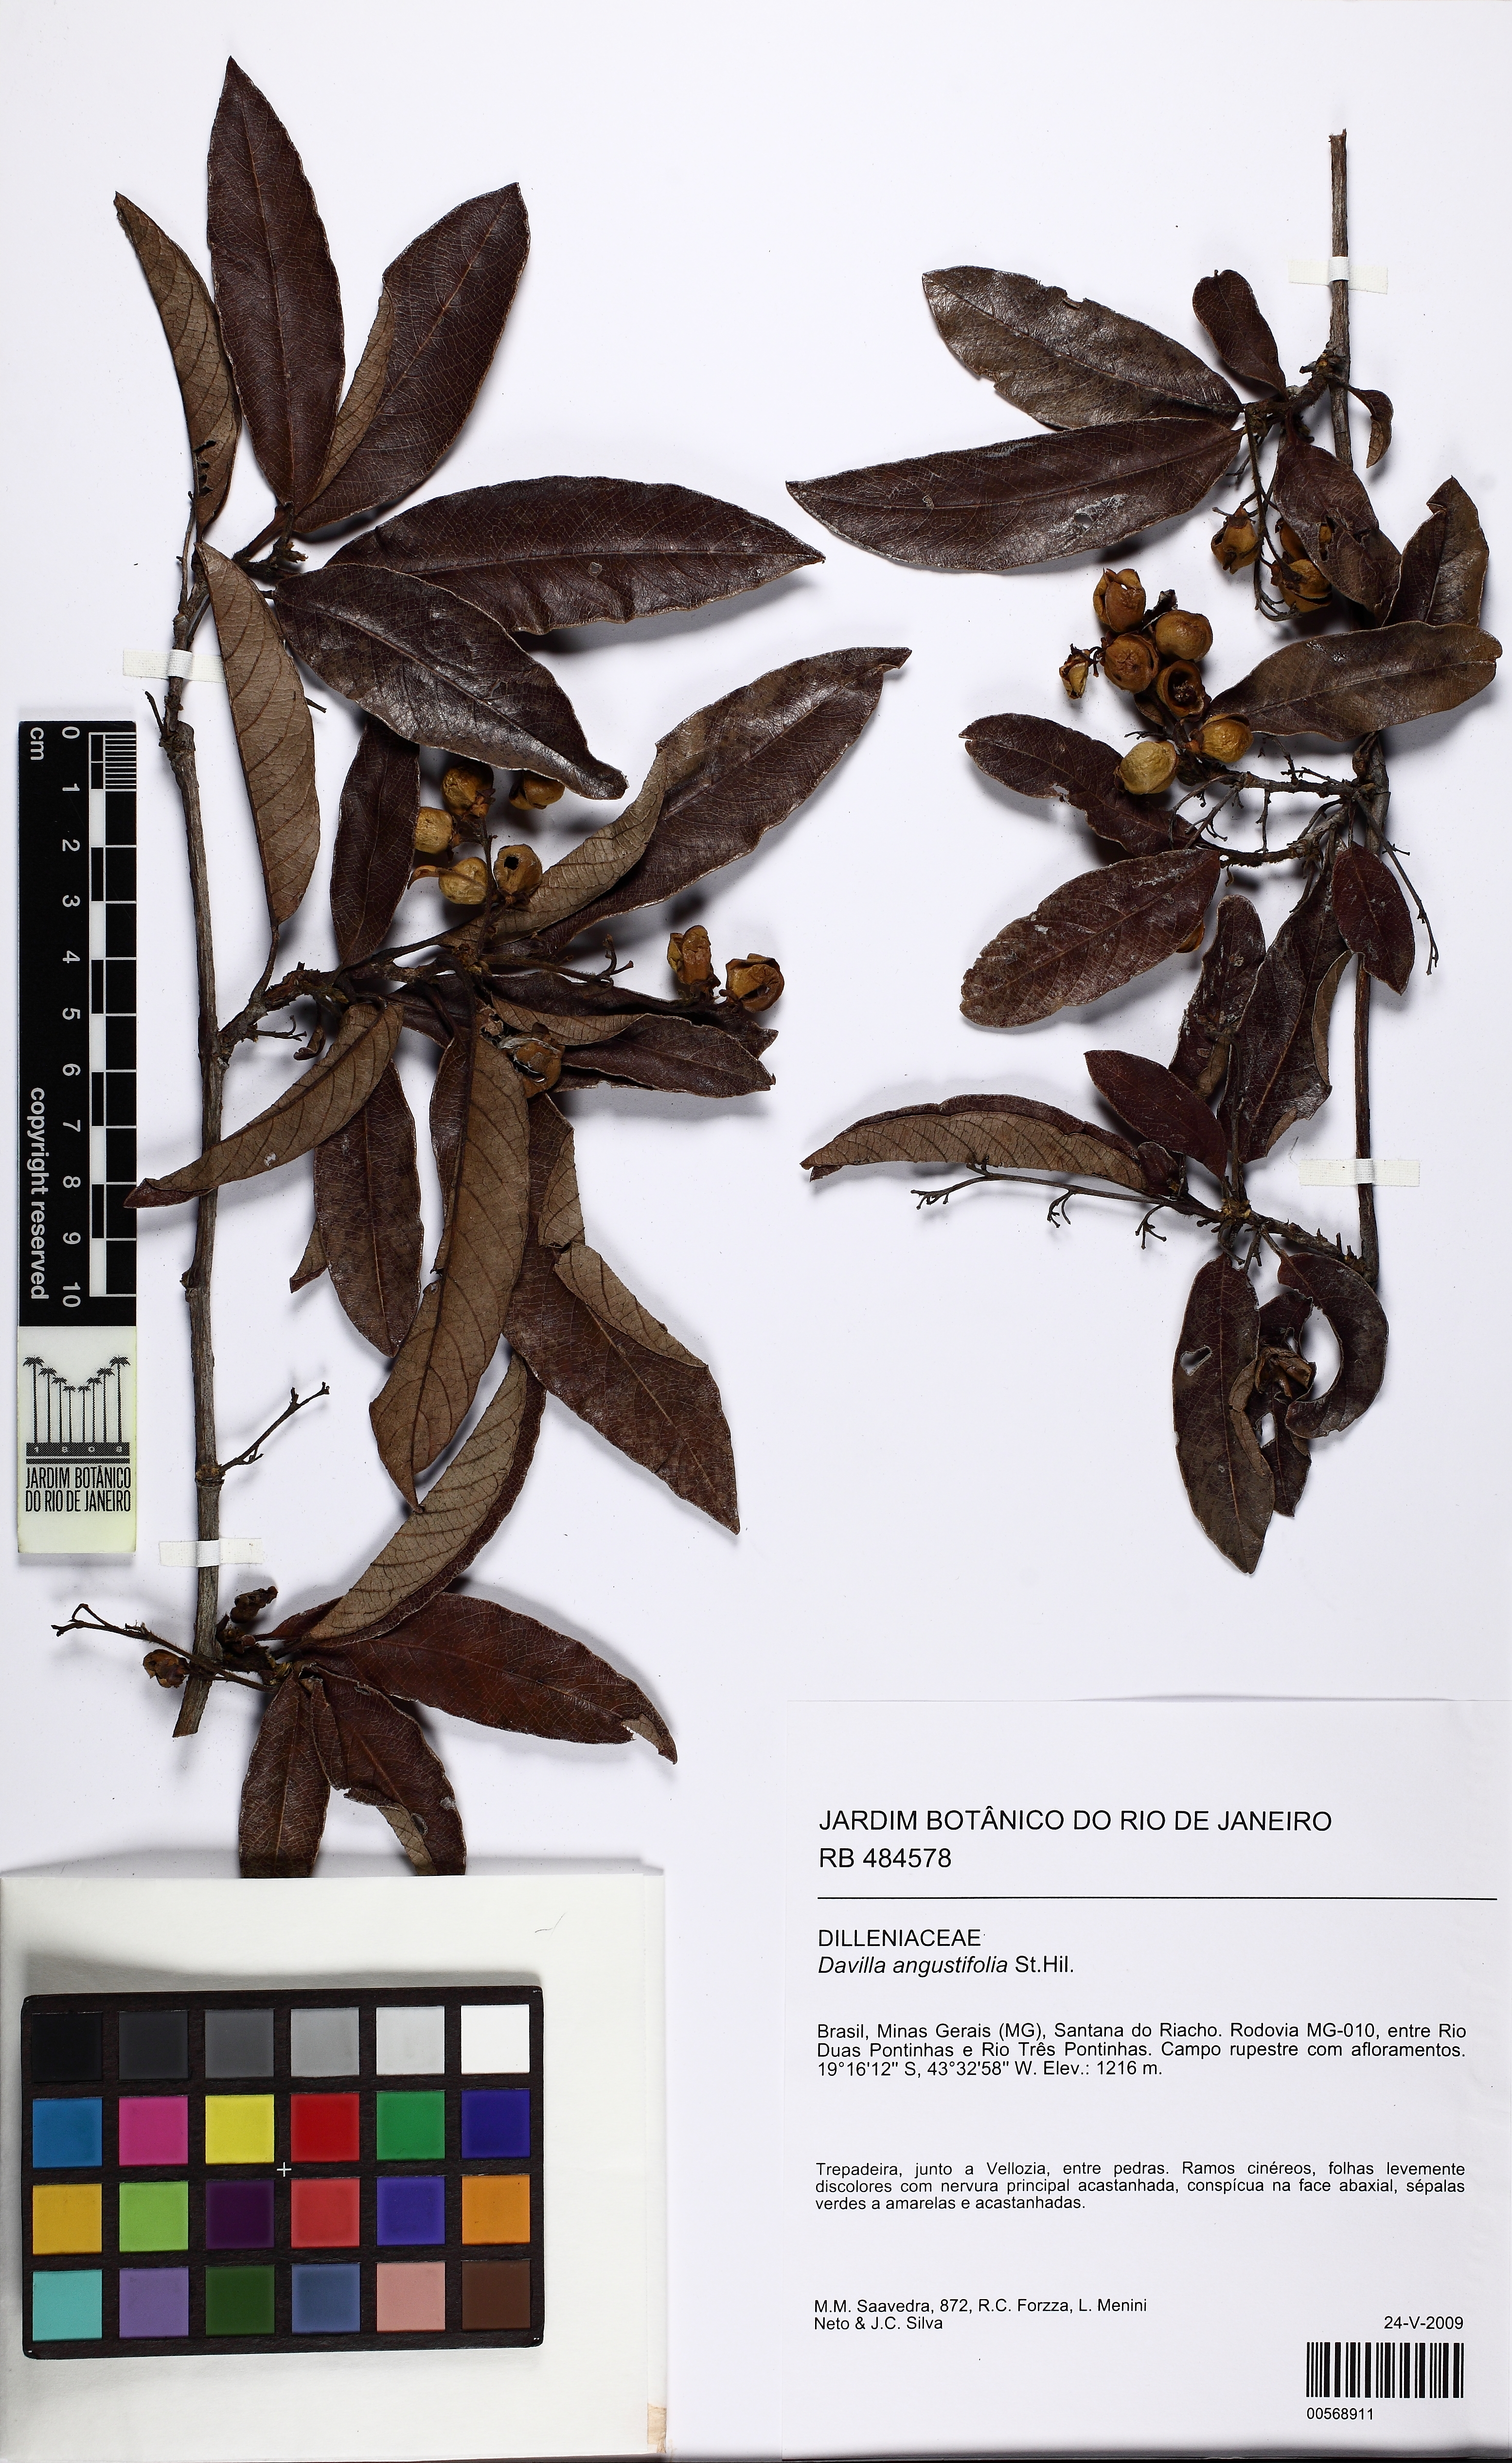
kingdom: Plantae
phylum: Tracheophyta
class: Magnoliopsida
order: Dilleniales
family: Dilleniaceae
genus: Davilla
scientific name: Davilla angustifolia
